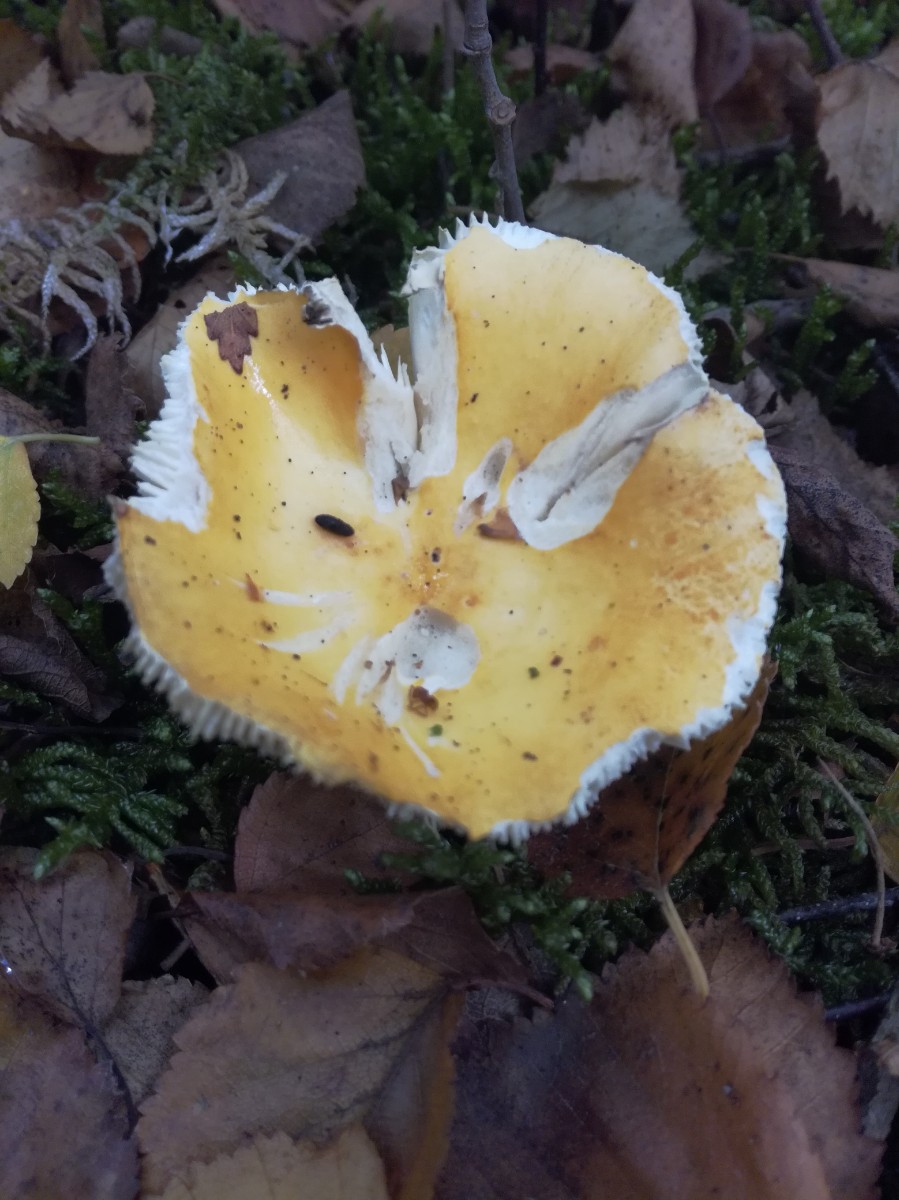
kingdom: Fungi
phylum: Basidiomycota
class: Agaricomycetes
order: Russulales
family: Russulaceae
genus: Russula
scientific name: Russula claroflava
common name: birke-skørhat
